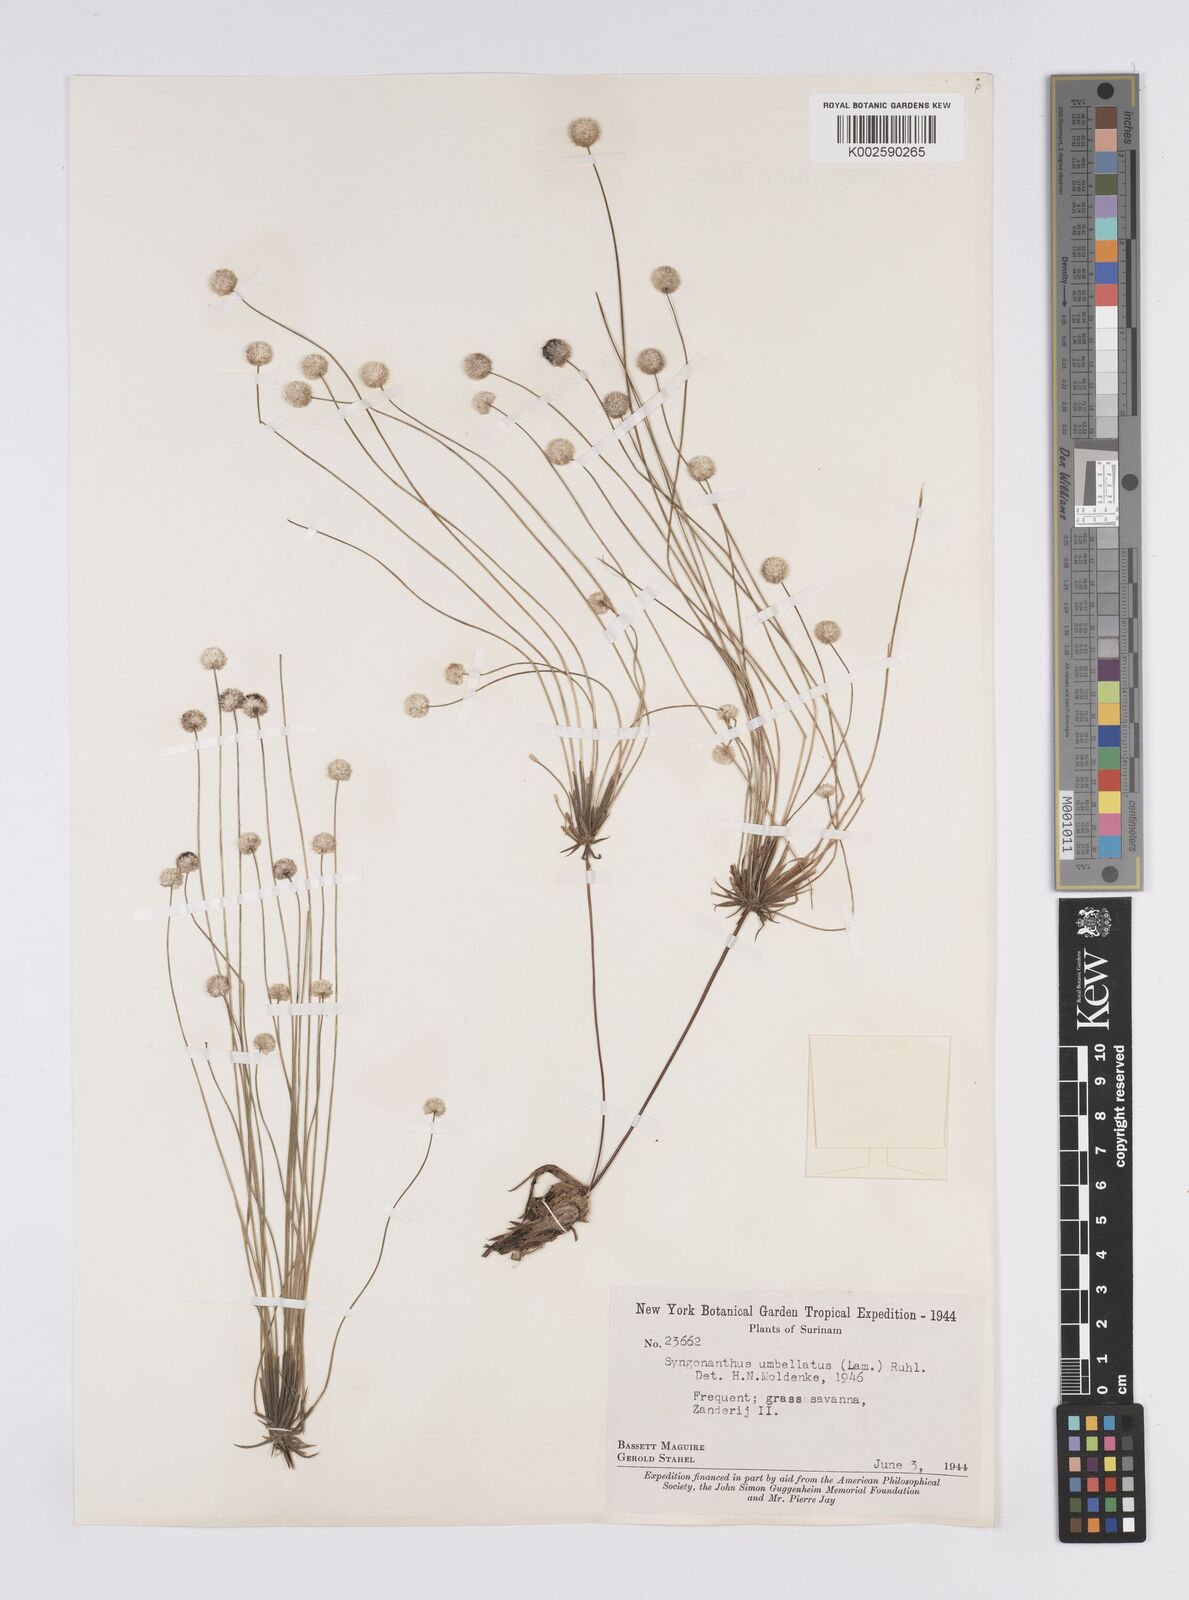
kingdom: Plantae
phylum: Tracheophyta
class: Liliopsida
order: Poales
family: Eriocaulaceae
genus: Syngonanthus
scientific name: Syngonanthus umbellatus
